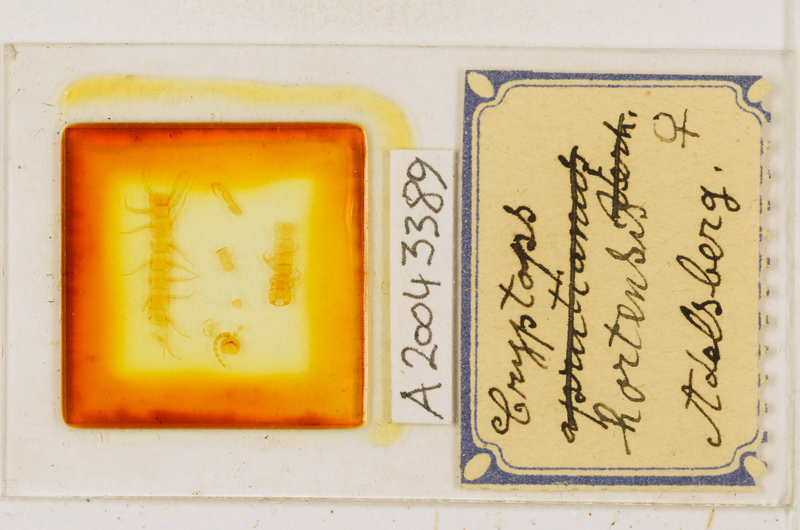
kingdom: Animalia
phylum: Arthropoda
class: Chilopoda
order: Scolopendromorpha
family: Cryptopidae
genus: Cryptops
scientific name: Cryptops hortensis
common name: Centipede
